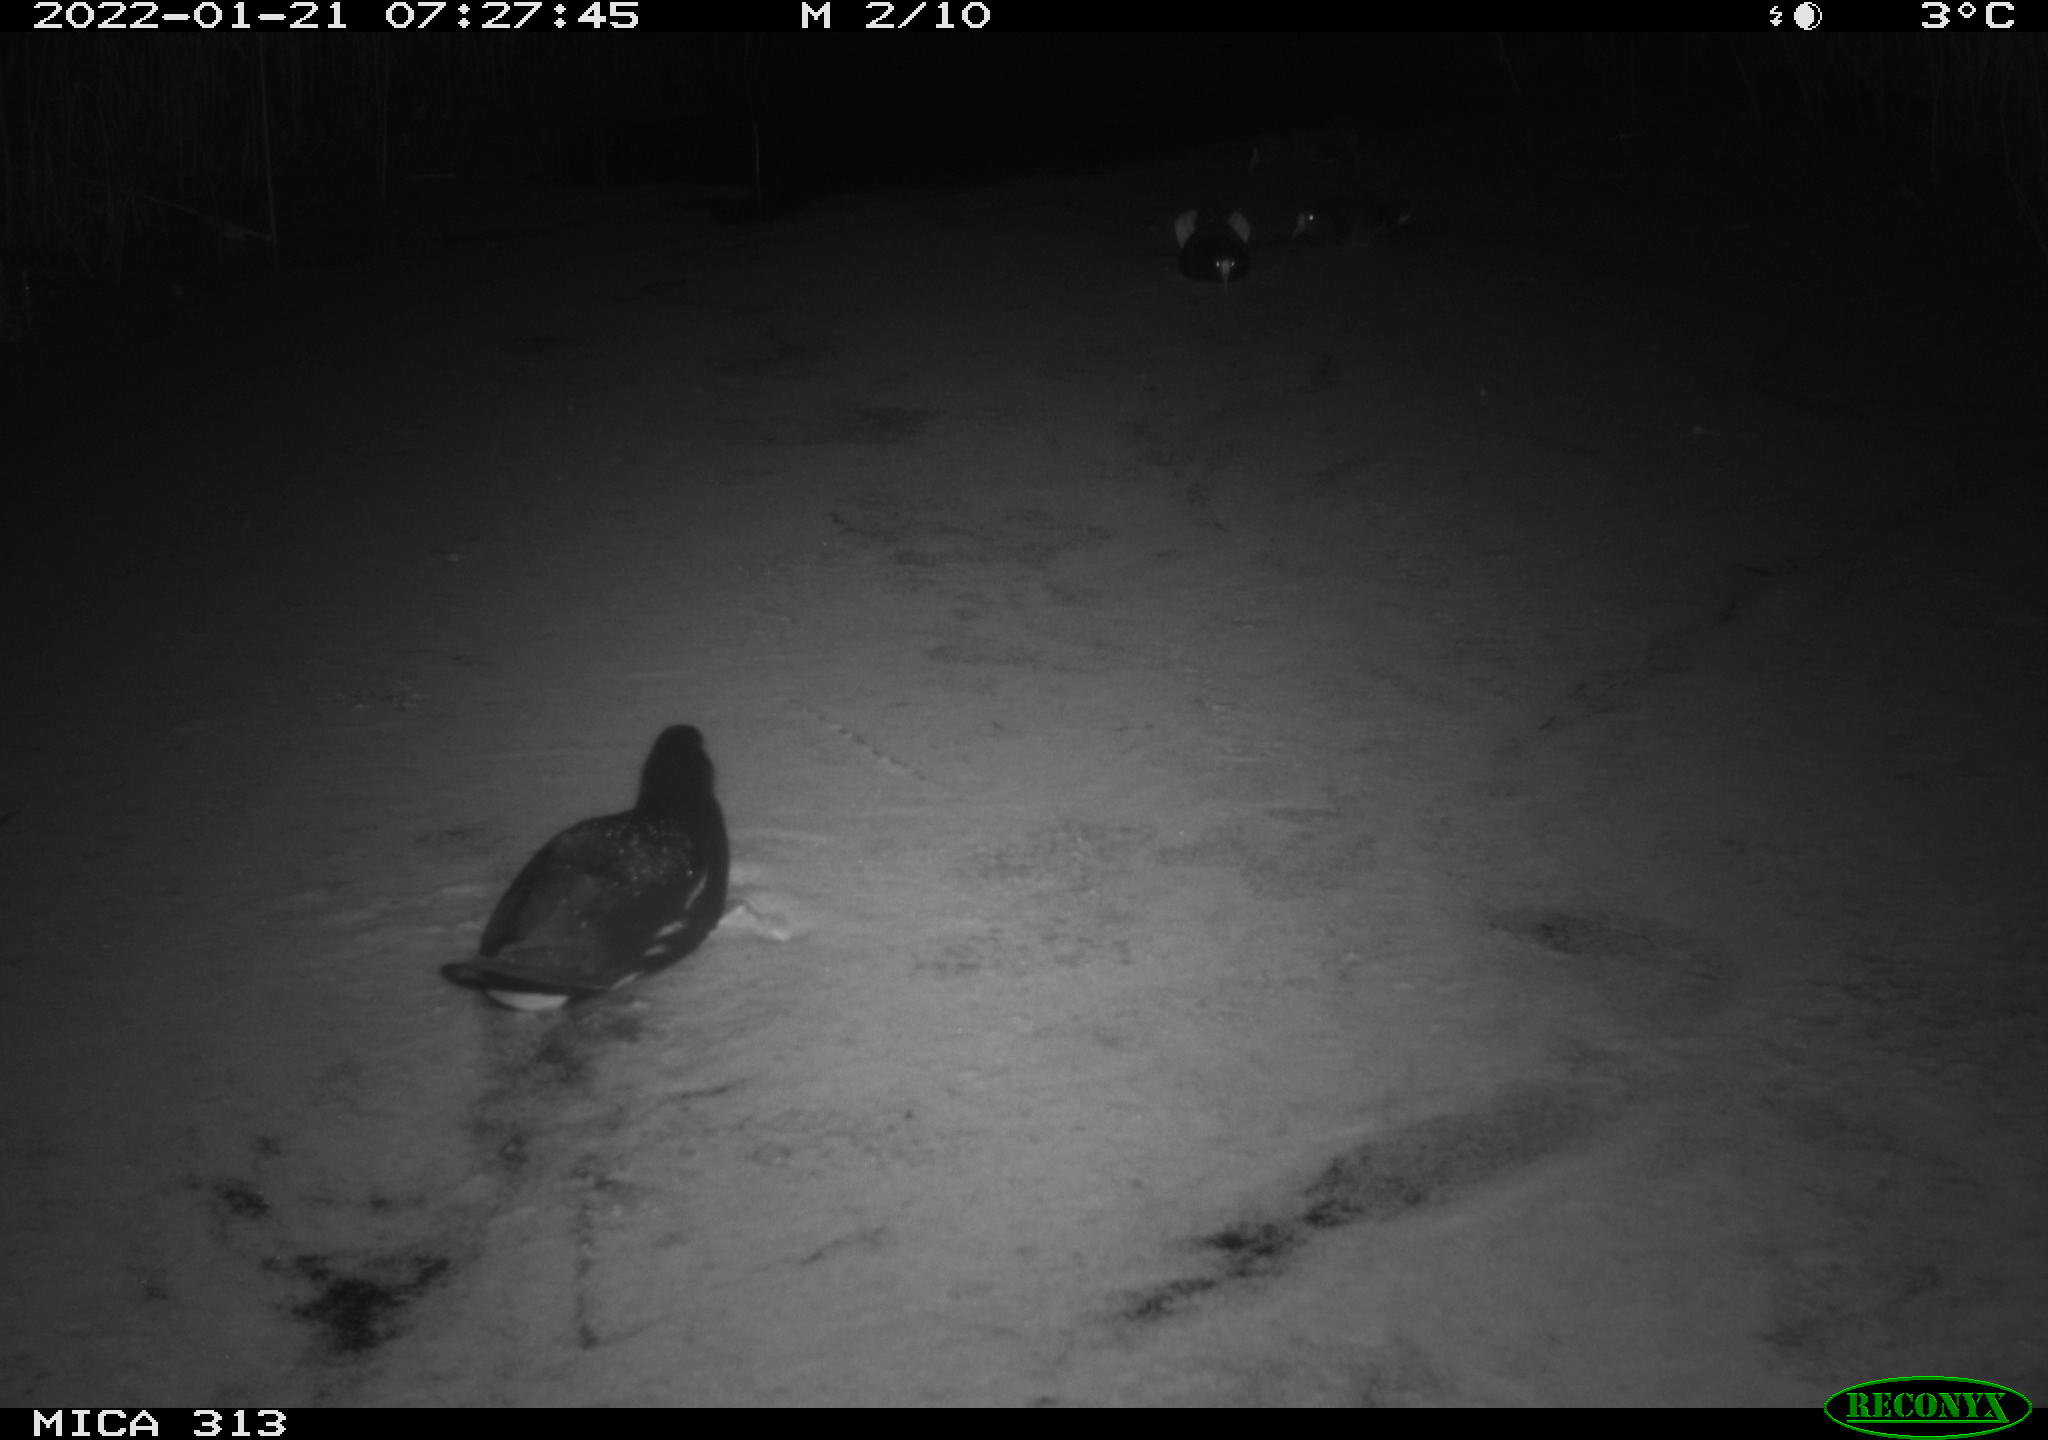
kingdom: Animalia
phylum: Chordata
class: Aves
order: Gruiformes
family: Rallidae
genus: Gallinula
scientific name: Gallinula chloropus
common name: Common moorhen
